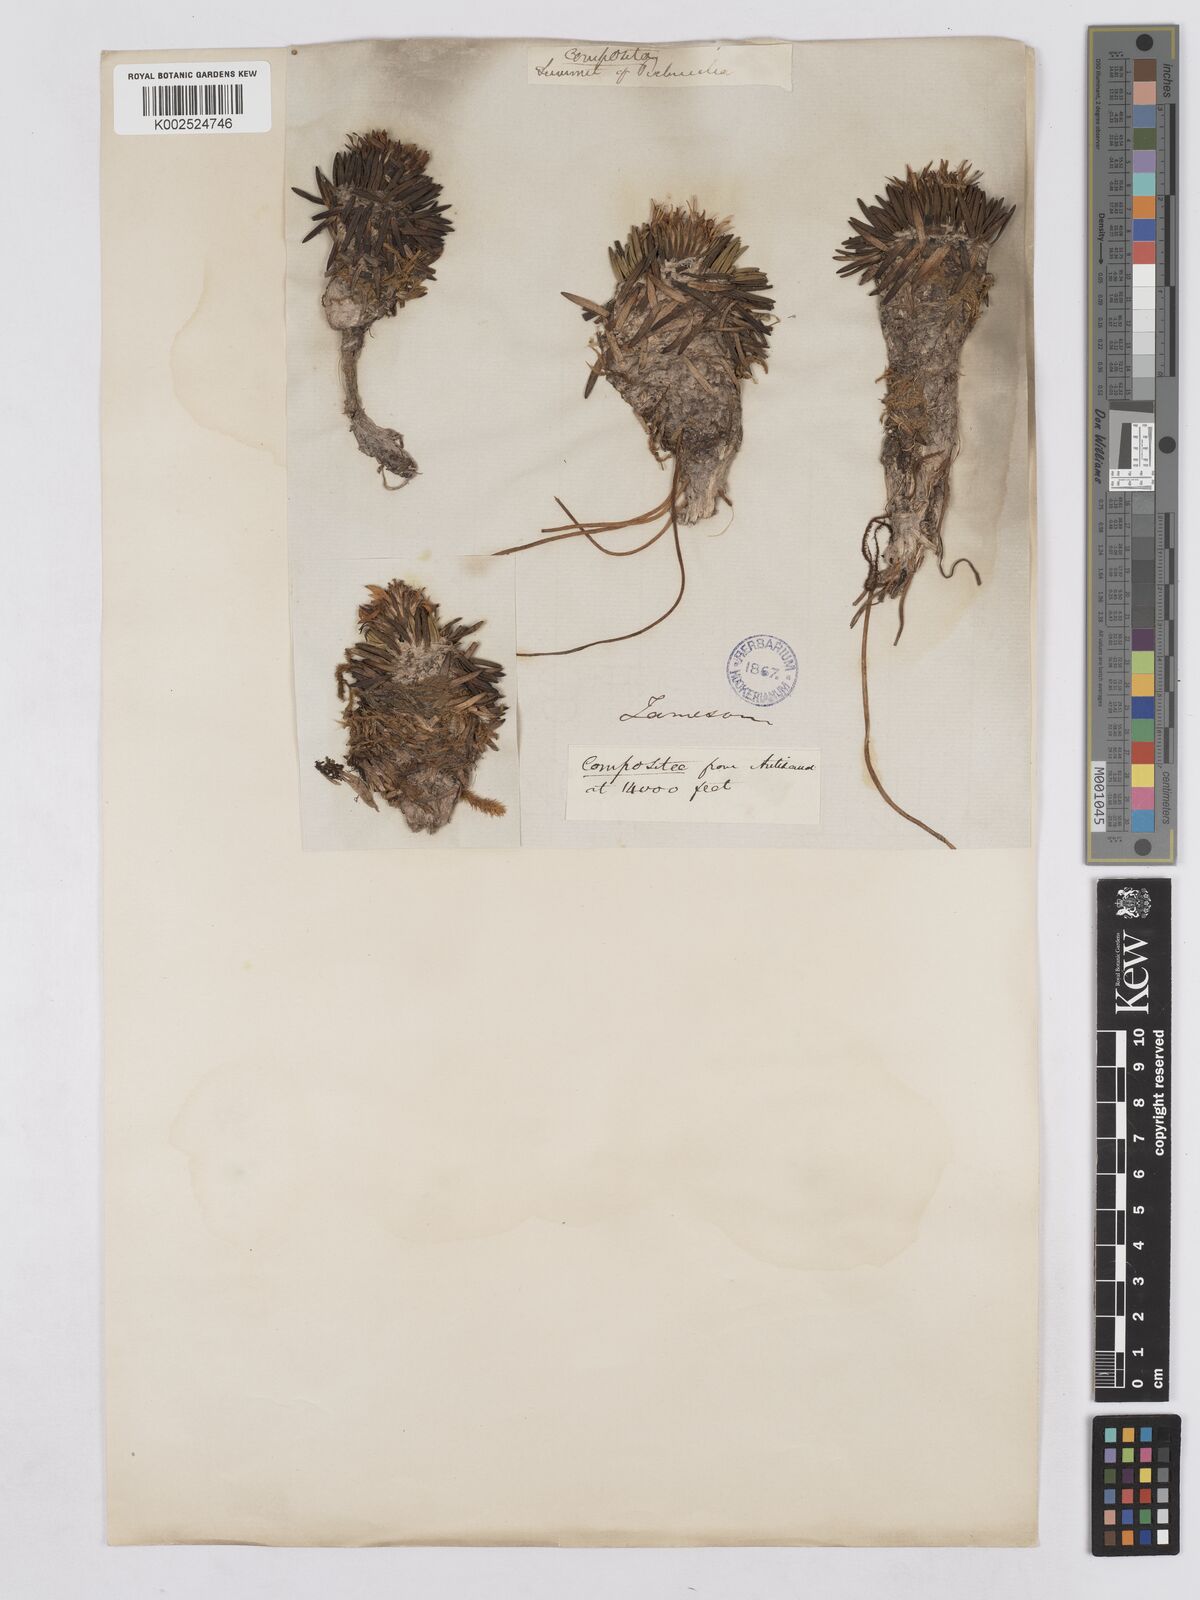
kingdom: Plantae
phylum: Tracheophyta
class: Magnoliopsida
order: Asterales
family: Asteraceae
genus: Rockhausenia
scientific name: Rockhausenia pumila
